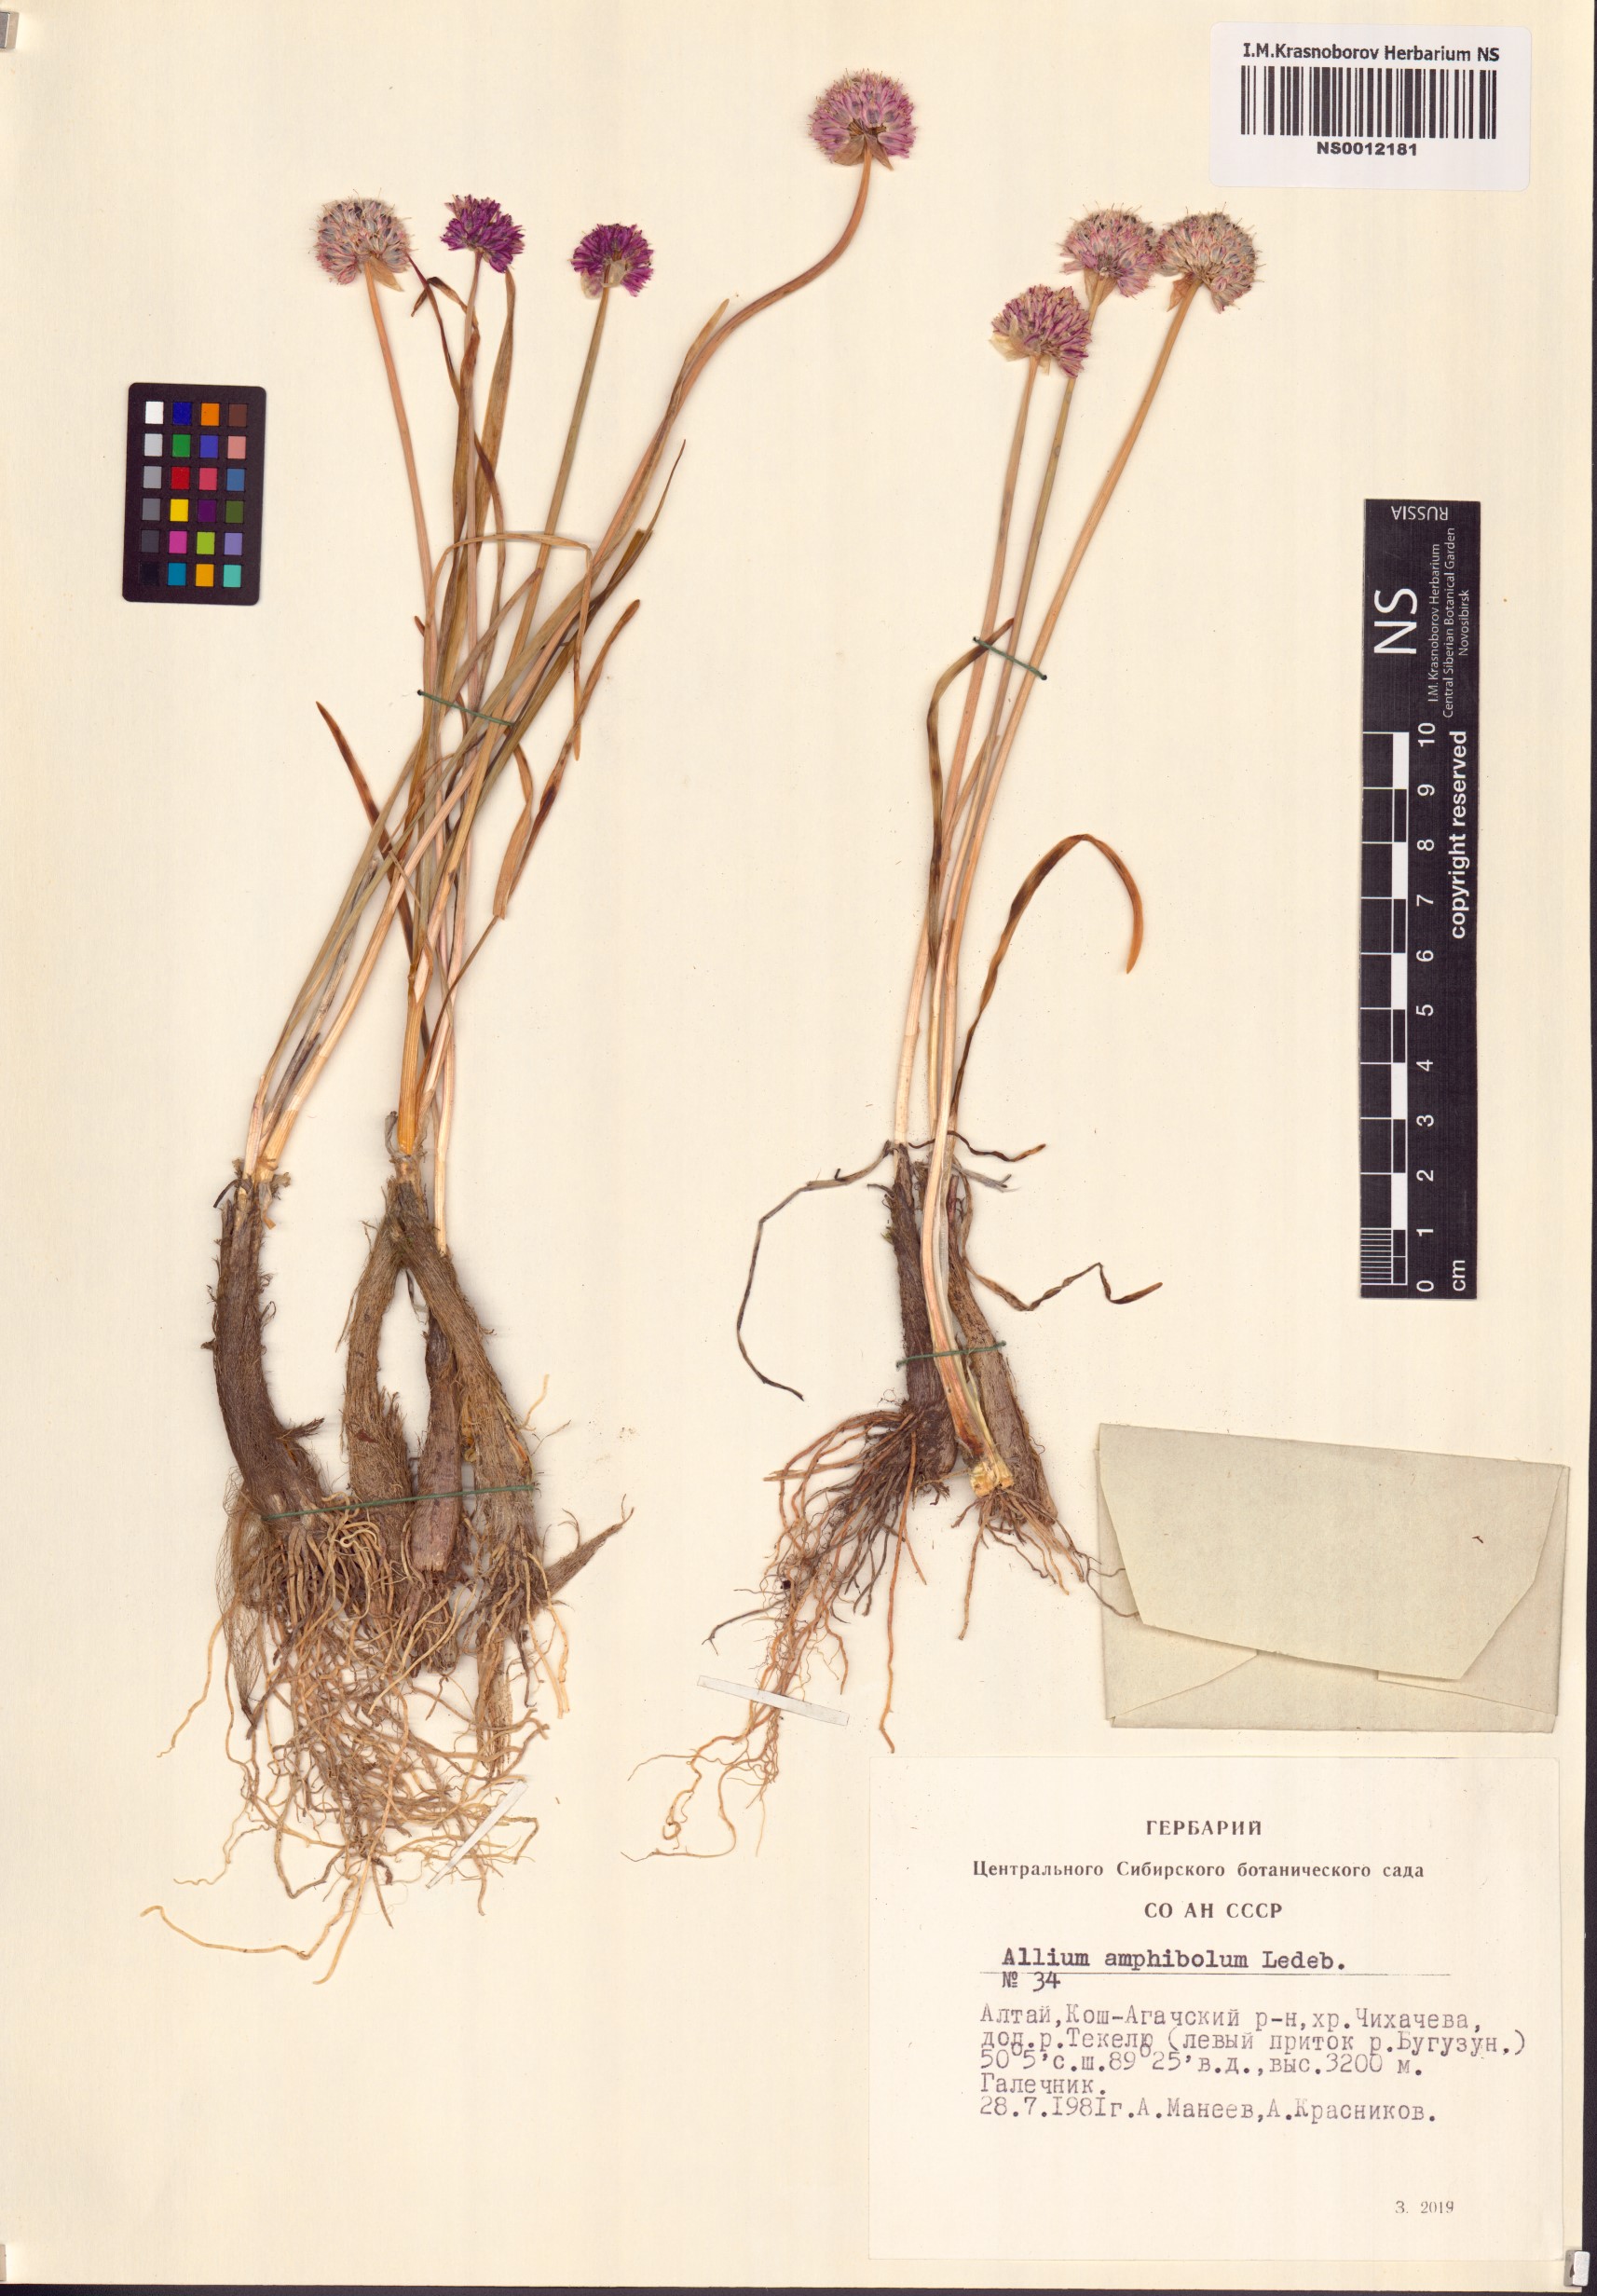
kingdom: Plantae
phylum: Tracheophyta
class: Liliopsida
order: Asparagales
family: Amaryllidaceae
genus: Allium
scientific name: Allium amphibolum
